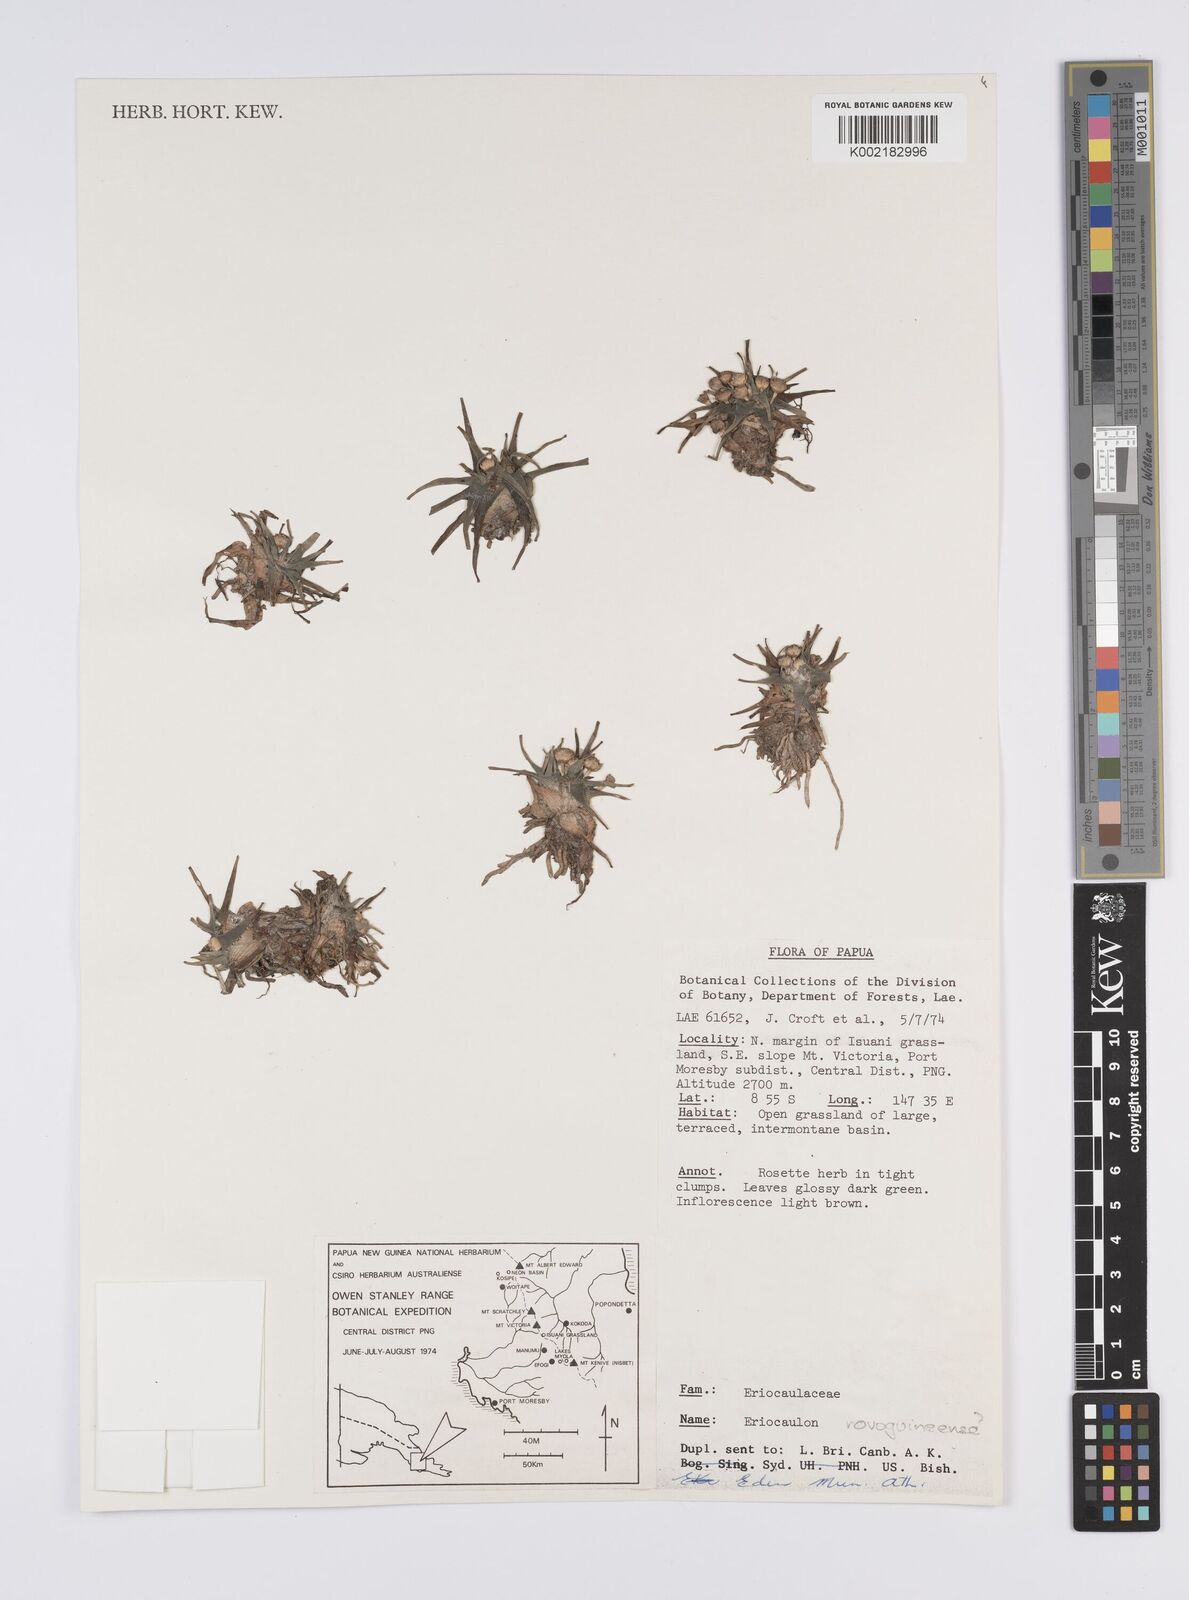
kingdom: Plantae
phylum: Tracheophyta
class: Liliopsida
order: Poales
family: Eriocaulaceae
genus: Eriocaulon
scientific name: Eriocaulon novoguineense
